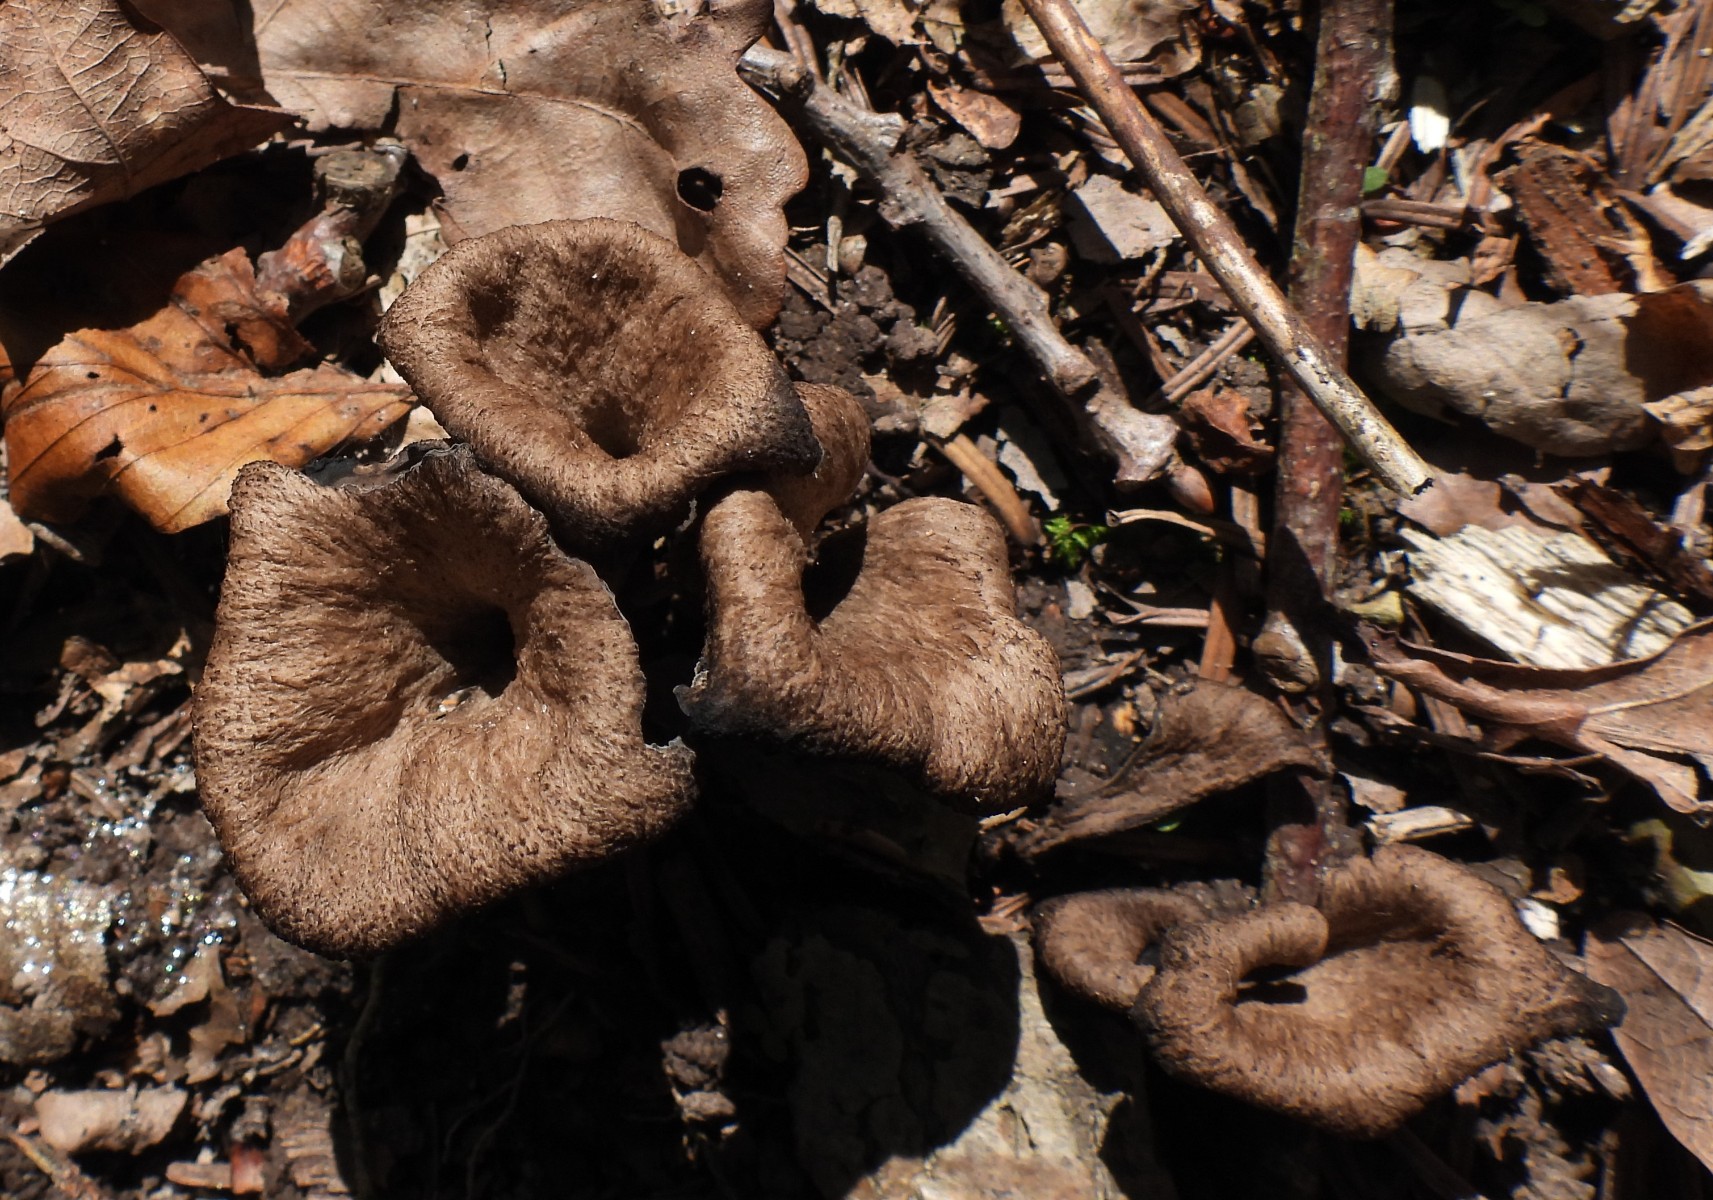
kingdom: Fungi
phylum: Basidiomycota
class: Agaricomycetes
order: Cantharellales
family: Hydnaceae
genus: Craterellus
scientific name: Craterellus cornucopioides
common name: trompetsvamp
